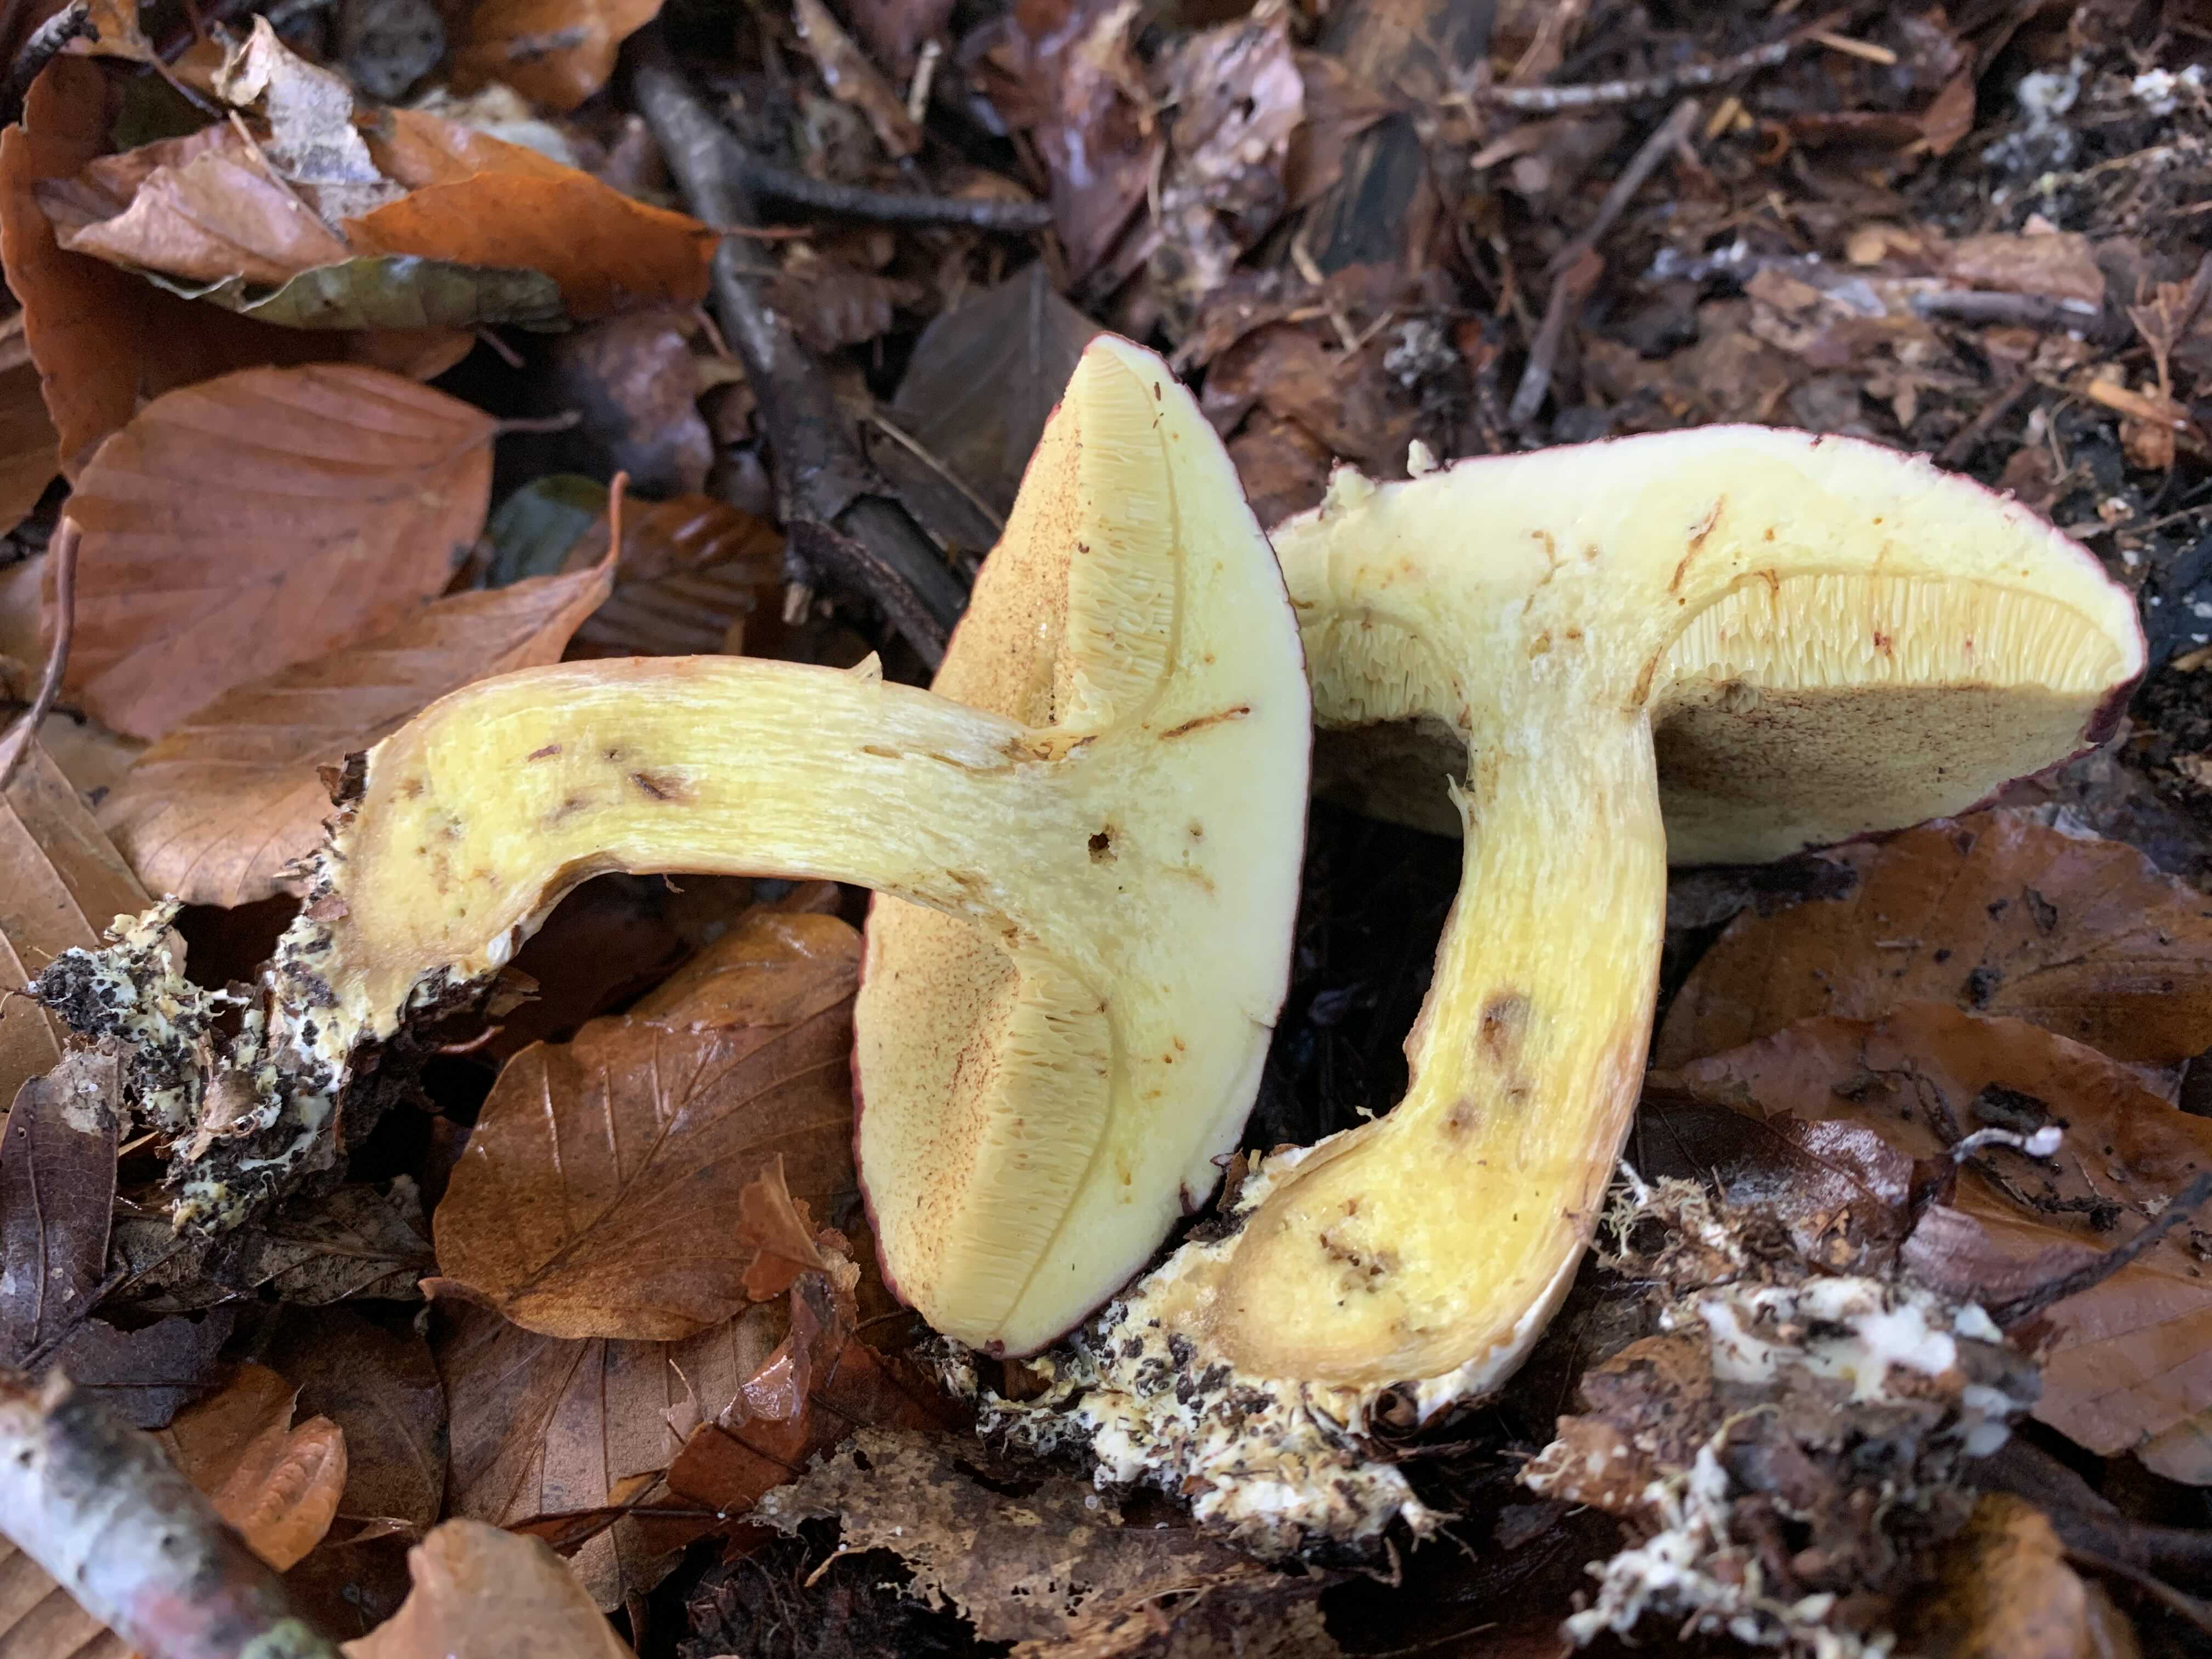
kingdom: Fungi
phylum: Basidiomycota
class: Agaricomycetes
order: Boletales
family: Boletaceae
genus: Xerocomellus
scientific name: Xerocomellus pruinatus
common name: dugget rørhat
